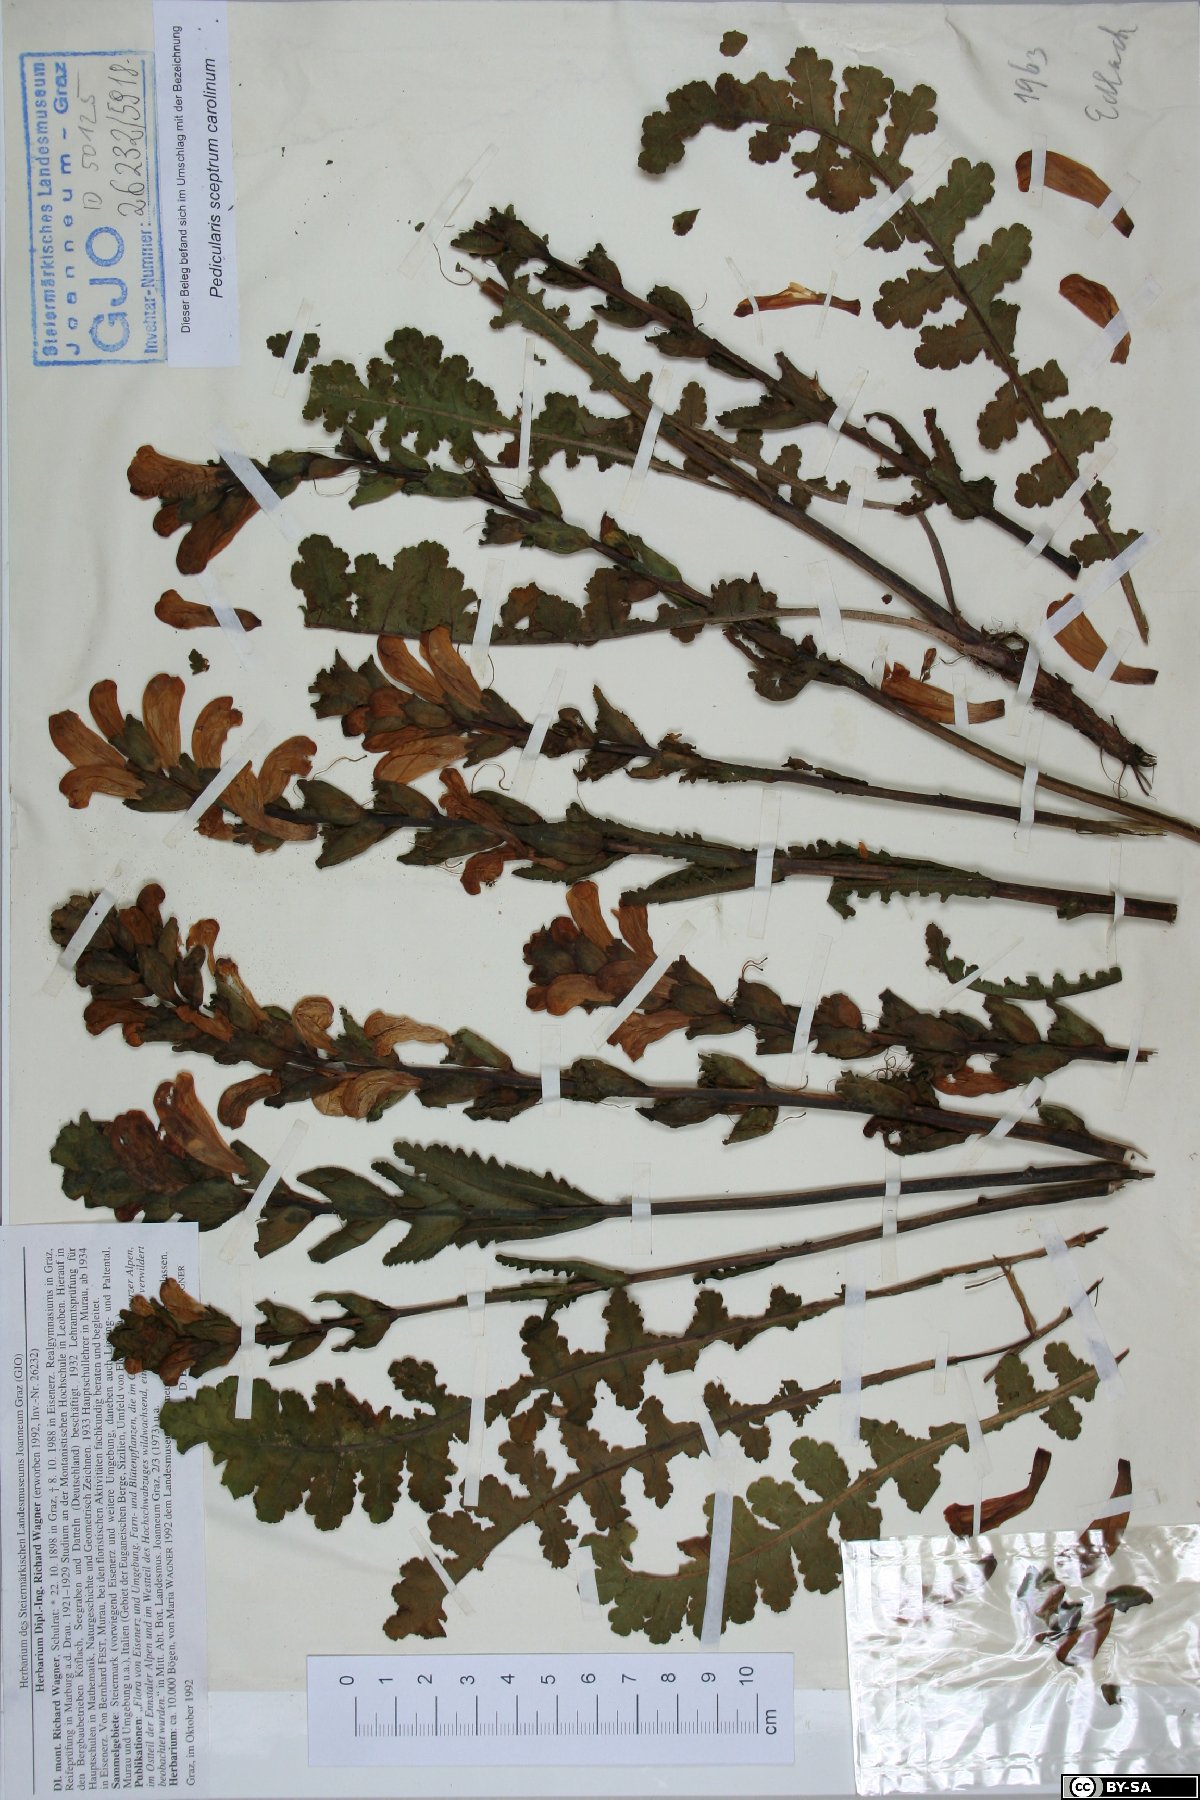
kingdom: Plantae
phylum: Tracheophyta
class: Magnoliopsida
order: Lamiales
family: Orobanchaceae
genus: Pedicularis
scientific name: Pedicularis sceptrum-carolinum
